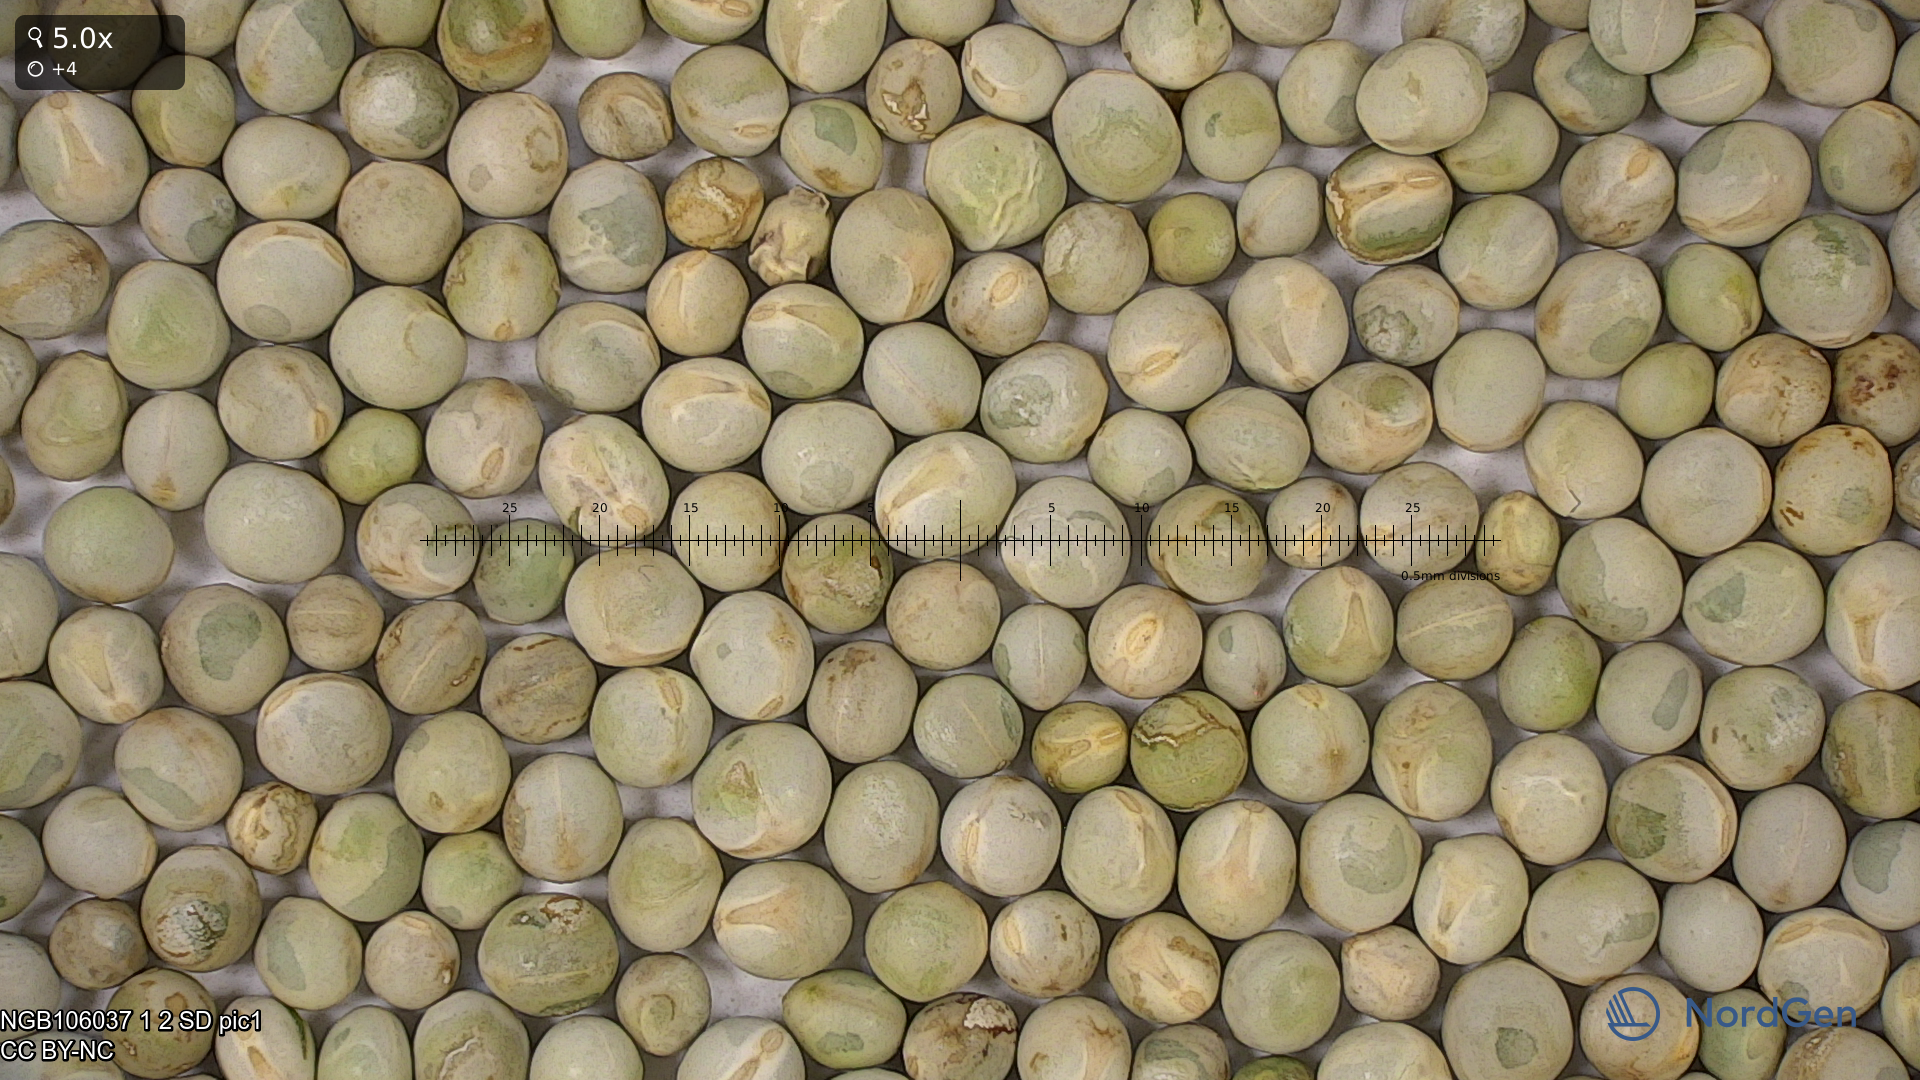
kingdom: Plantae
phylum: Tracheophyta
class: Magnoliopsida
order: Fabales
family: Fabaceae
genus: Lathyrus
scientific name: Lathyrus oleraceus
